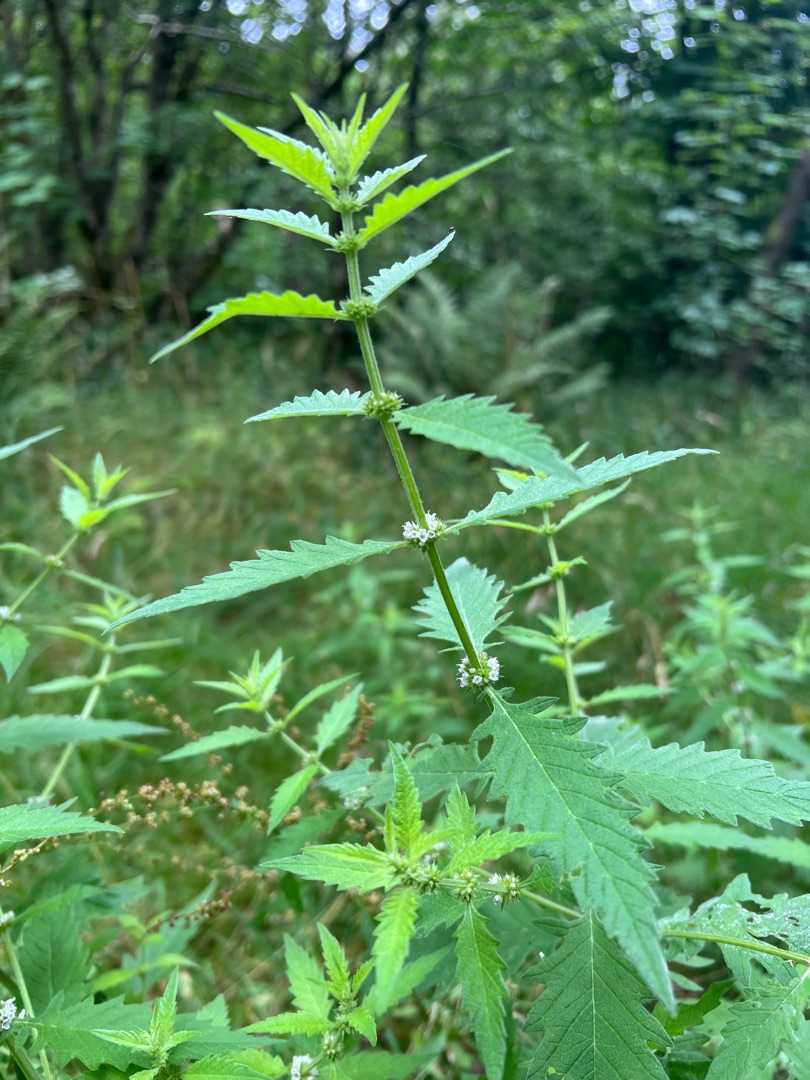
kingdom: Plantae
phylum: Tracheophyta
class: Magnoliopsida
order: Lamiales
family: Lamiaceae
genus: Lycopus
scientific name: Lycopus europaeus
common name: Sværtevæld
